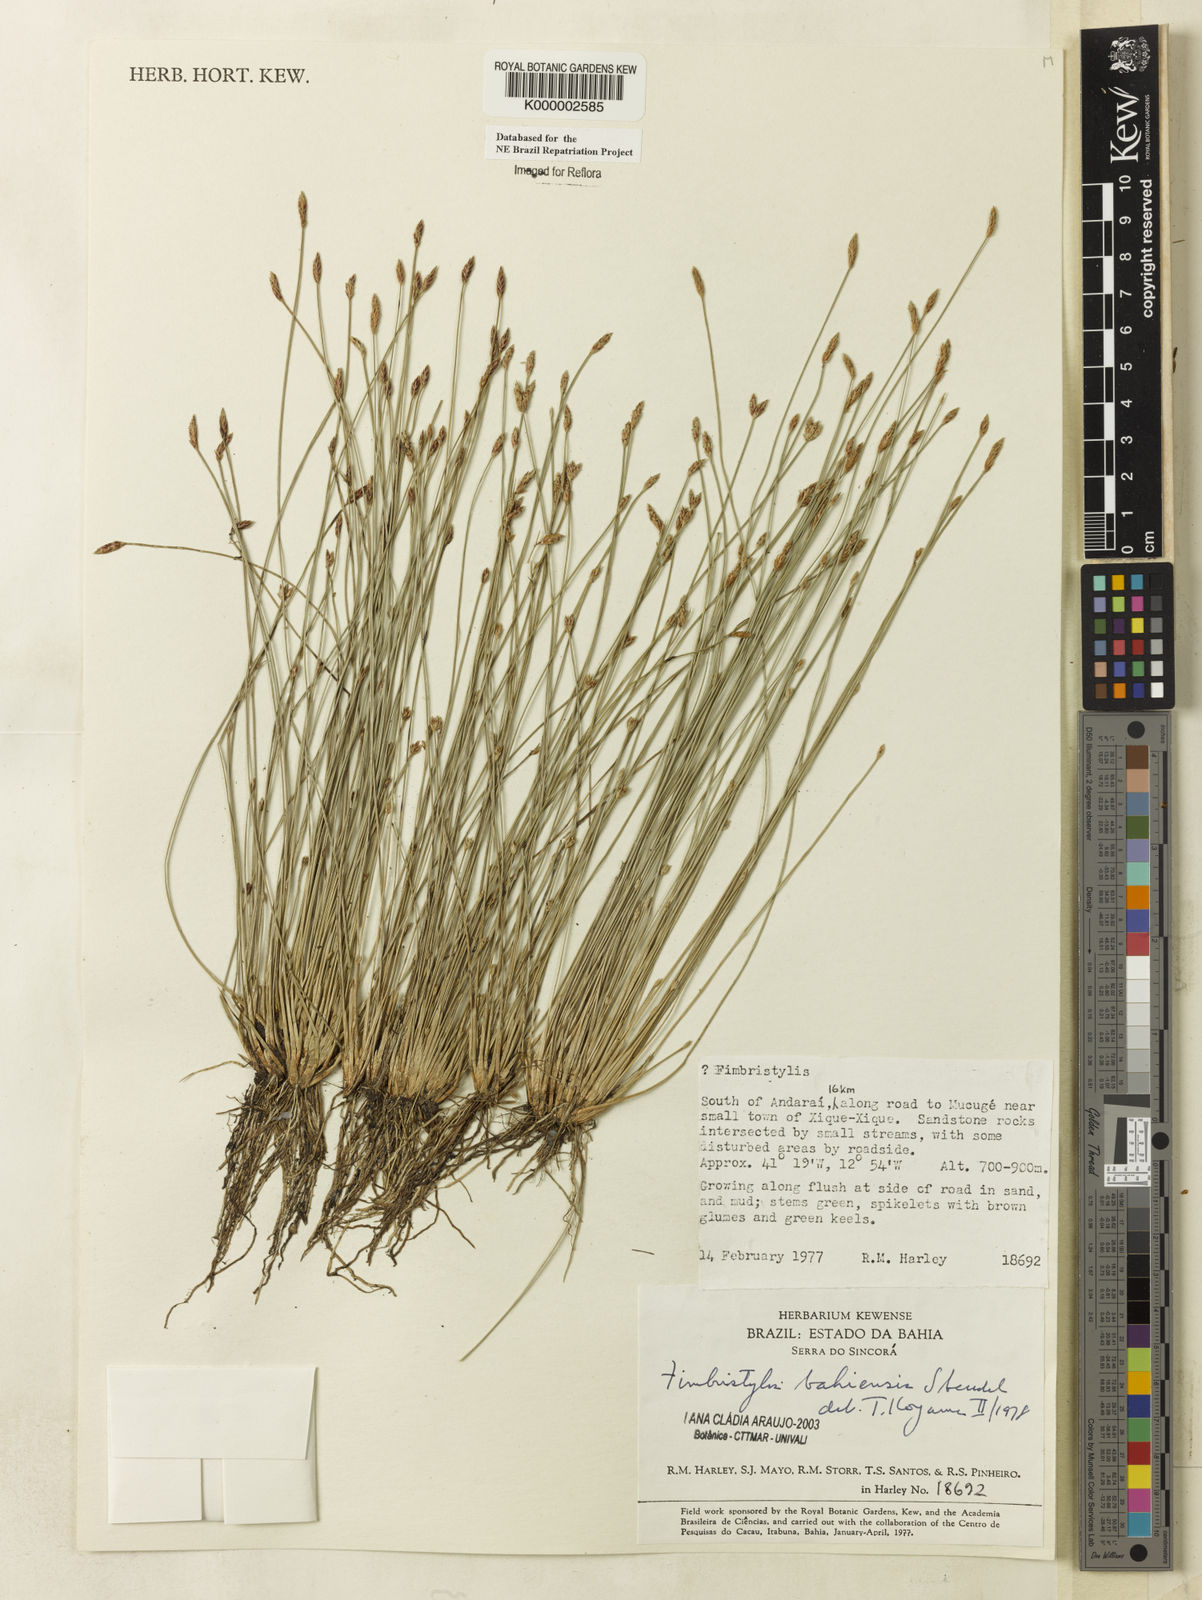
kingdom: Plantae
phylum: Tracheophyta
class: Liliopsida
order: Poales
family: Cyperaceae
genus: Fimbristylis
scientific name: Fimbristylis bahiensis
